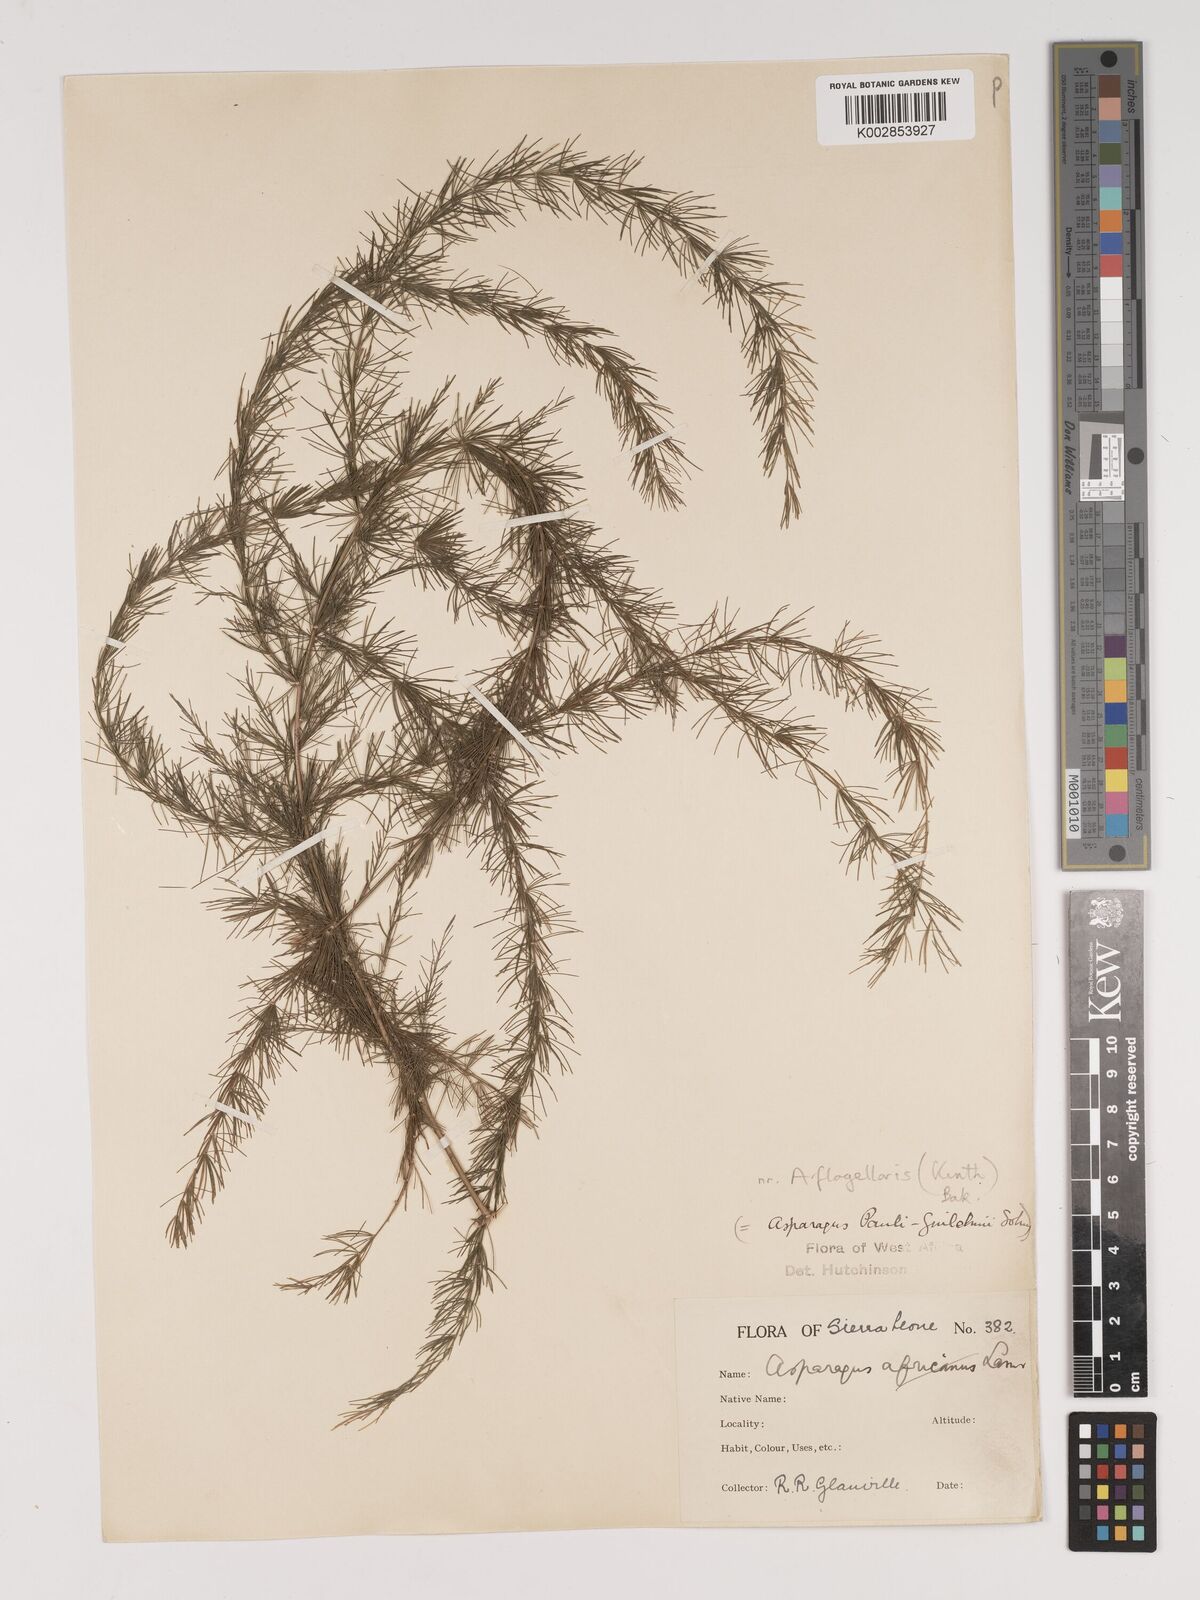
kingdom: Plantae
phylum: Tracheophyta
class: Liliopsida
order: Asparagales
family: Asparagaceae
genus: Asparagus
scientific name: Asparagus flagellaris
